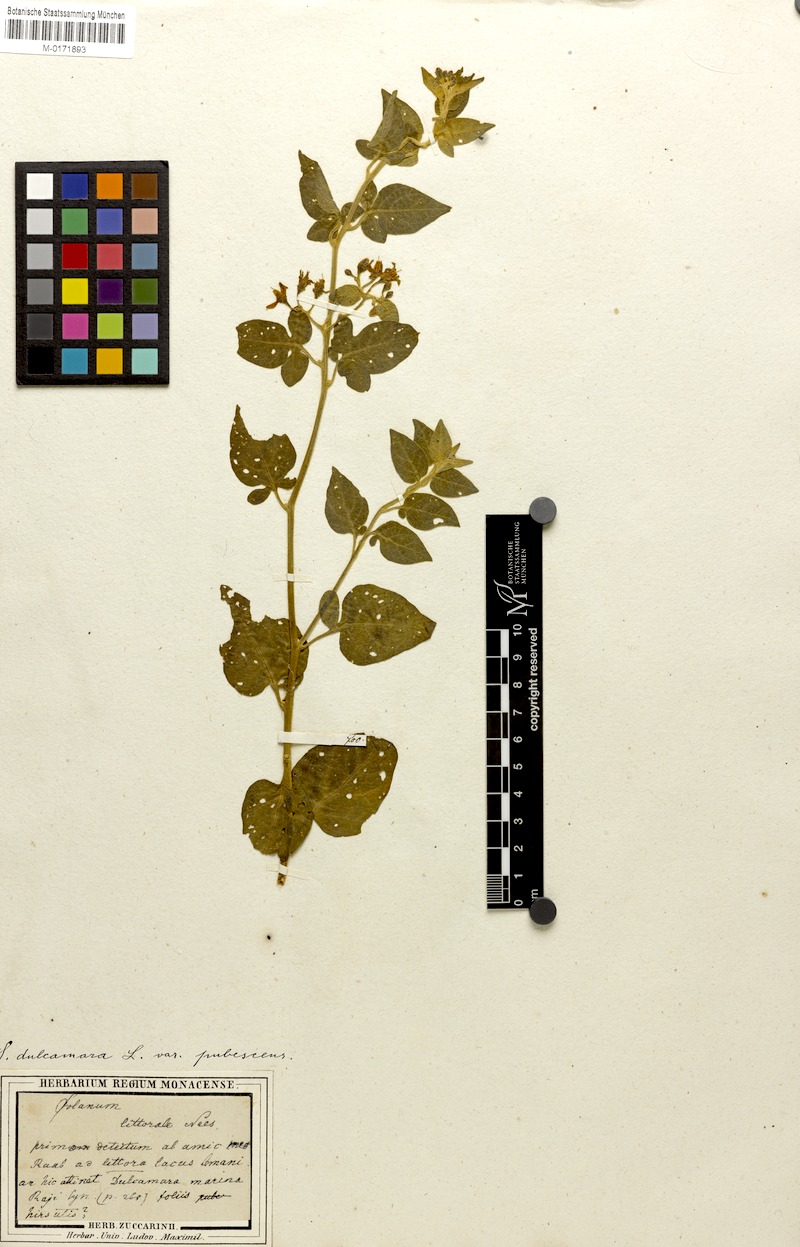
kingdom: Plantae
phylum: Tracheophyta
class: Magnoliopsida
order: Solanales
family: Solanaceae
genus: Solanum
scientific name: Solanum dulcamara
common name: Climbing nightshade
